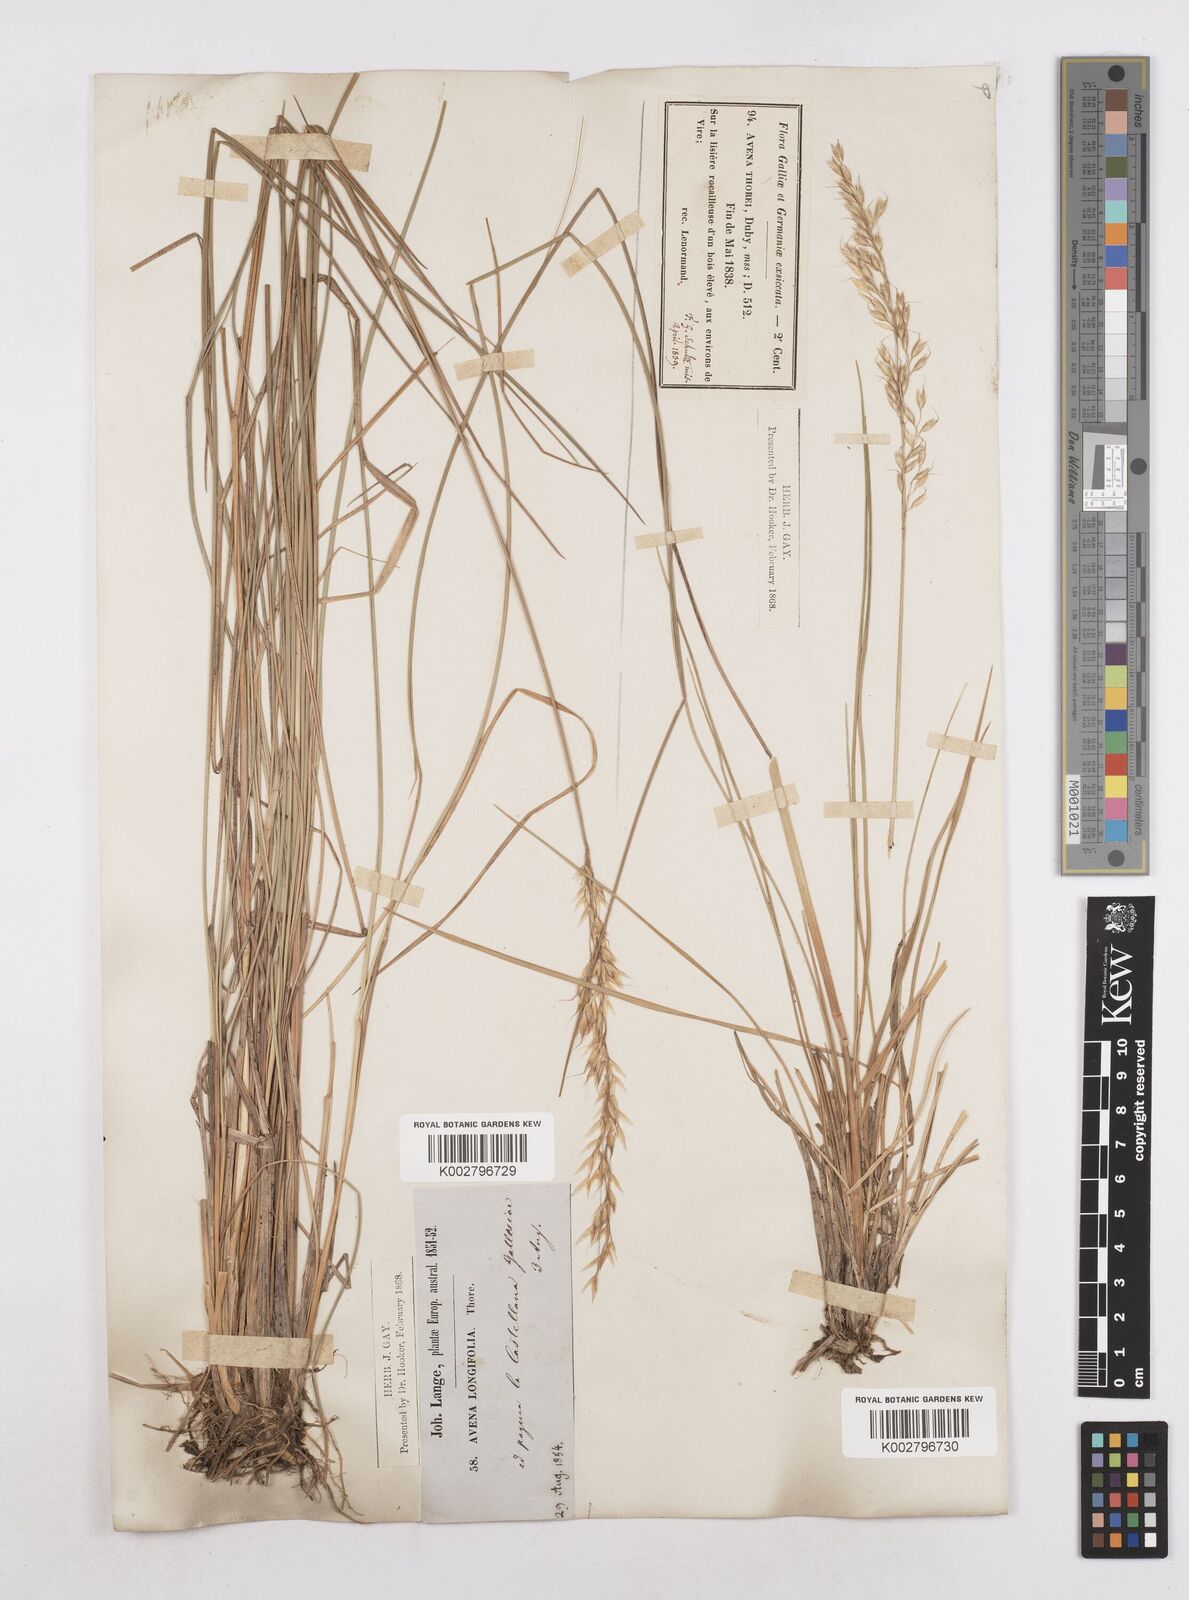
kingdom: Plantae
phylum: Tracheophyta
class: Liliopsida
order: Poales
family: Poaceae
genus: Arrhenatherum
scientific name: Arrhenatherum longifolium
